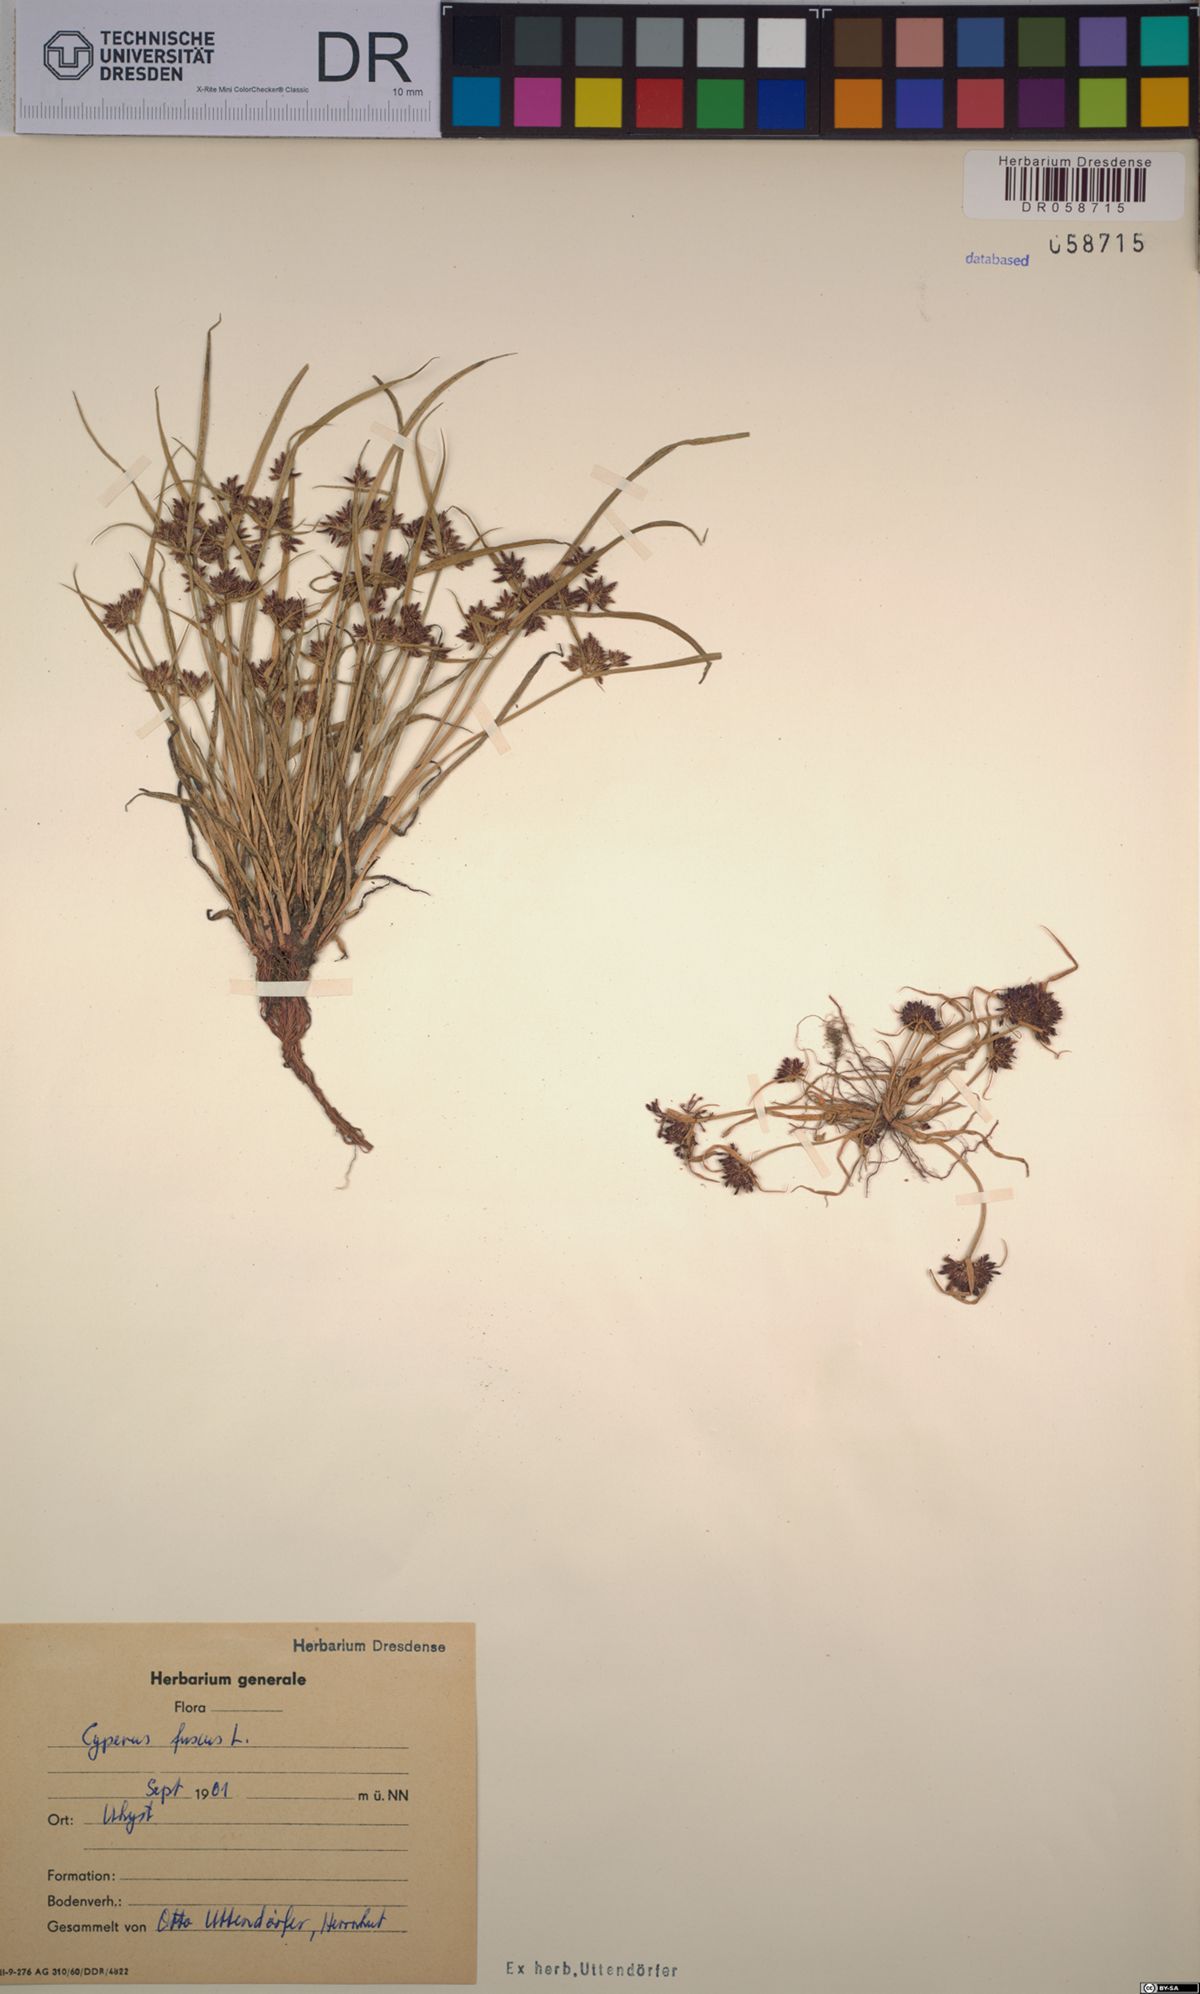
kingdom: Plantae
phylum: Tracheophyta
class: Liliopsida
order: Poales
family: Cyperaceae
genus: Cyperus
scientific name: Cyperus fuscus
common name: Brown galingale
